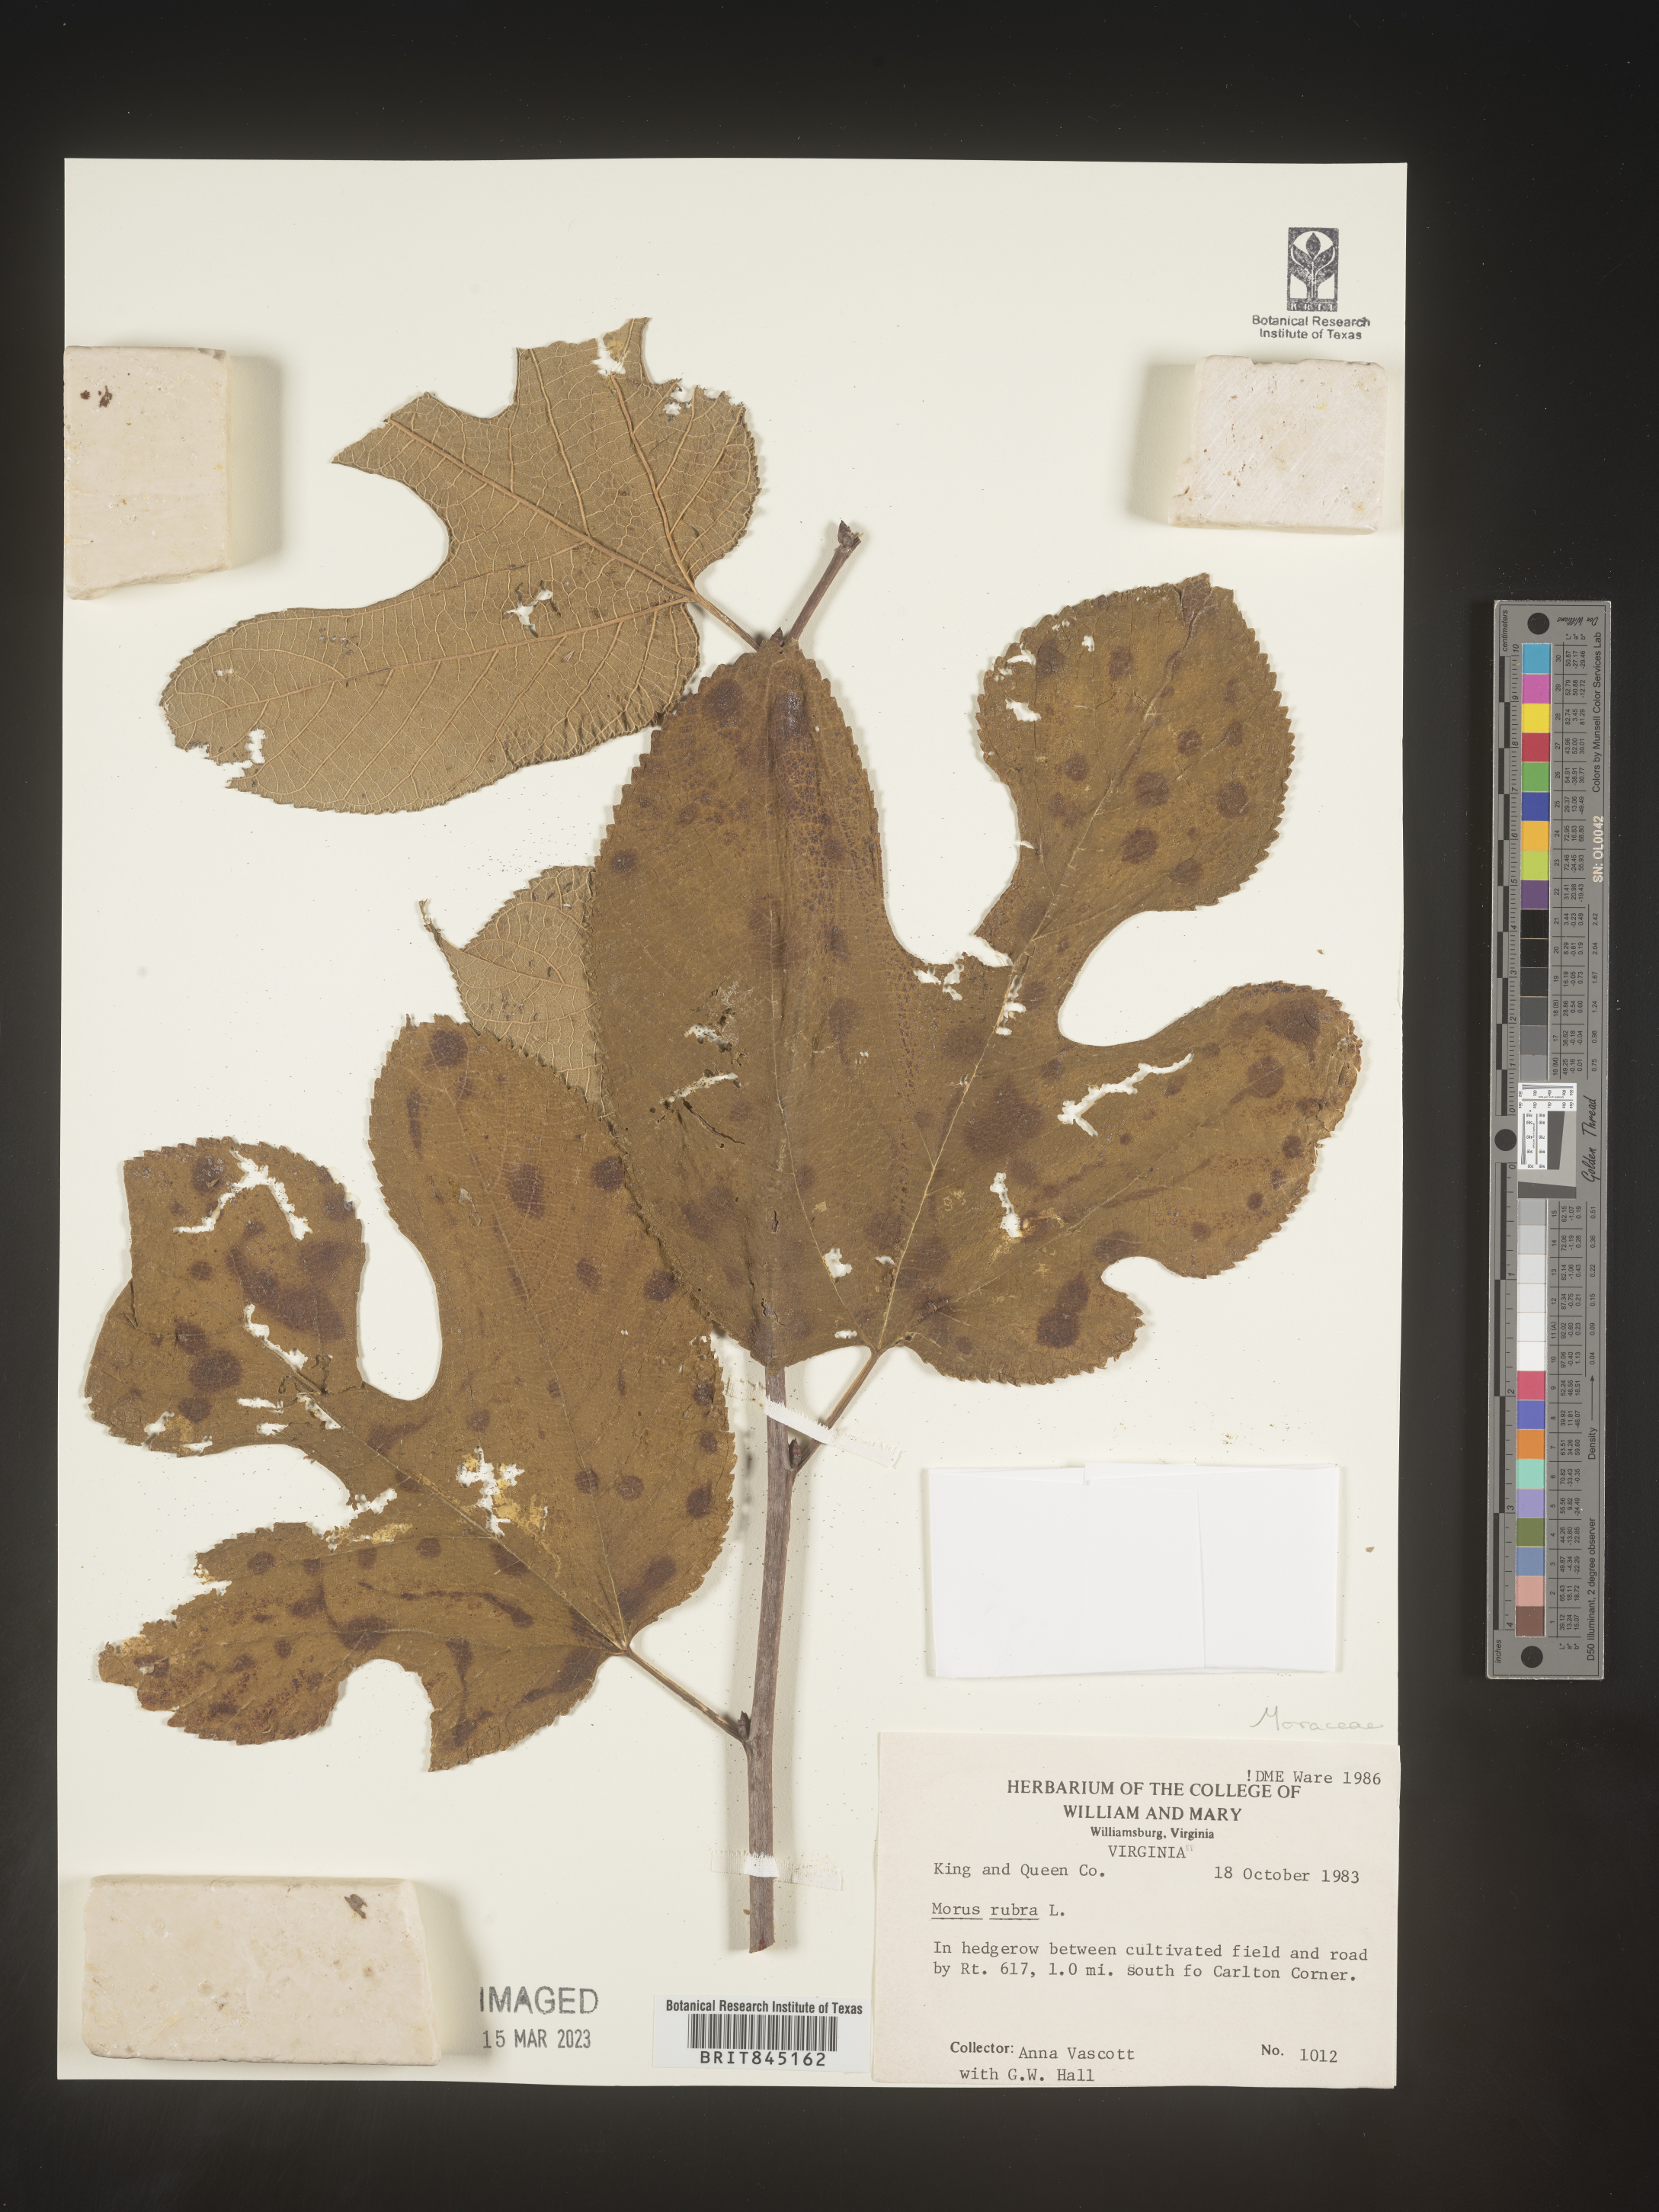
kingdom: Plantae
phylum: Tracheophyta
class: Magnoliopsida
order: Rosales
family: Moraceae
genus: Morus
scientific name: Morus rubra
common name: Red mulberry
